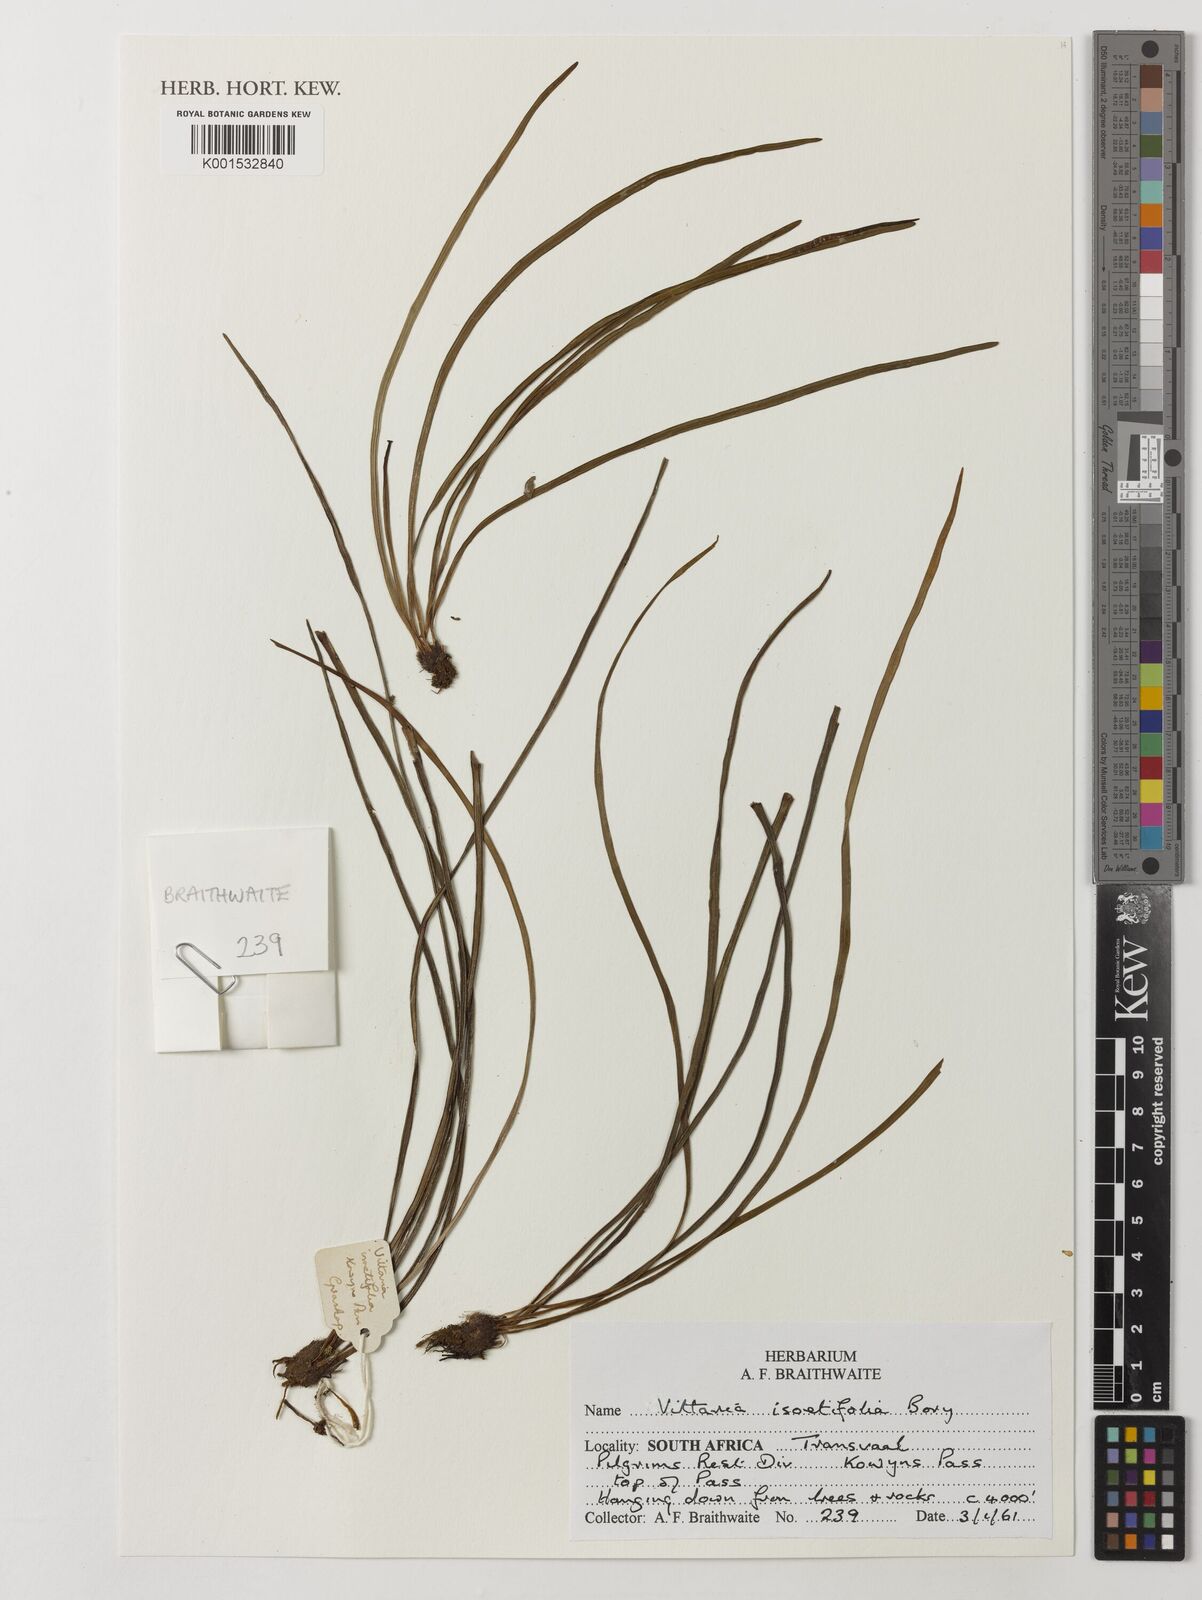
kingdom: Plantae
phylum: Tracheophyta
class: Polypodiopsida
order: Polypodiales
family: Pteridaceae
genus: Vittaria
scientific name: Vittaria isoetifolia
